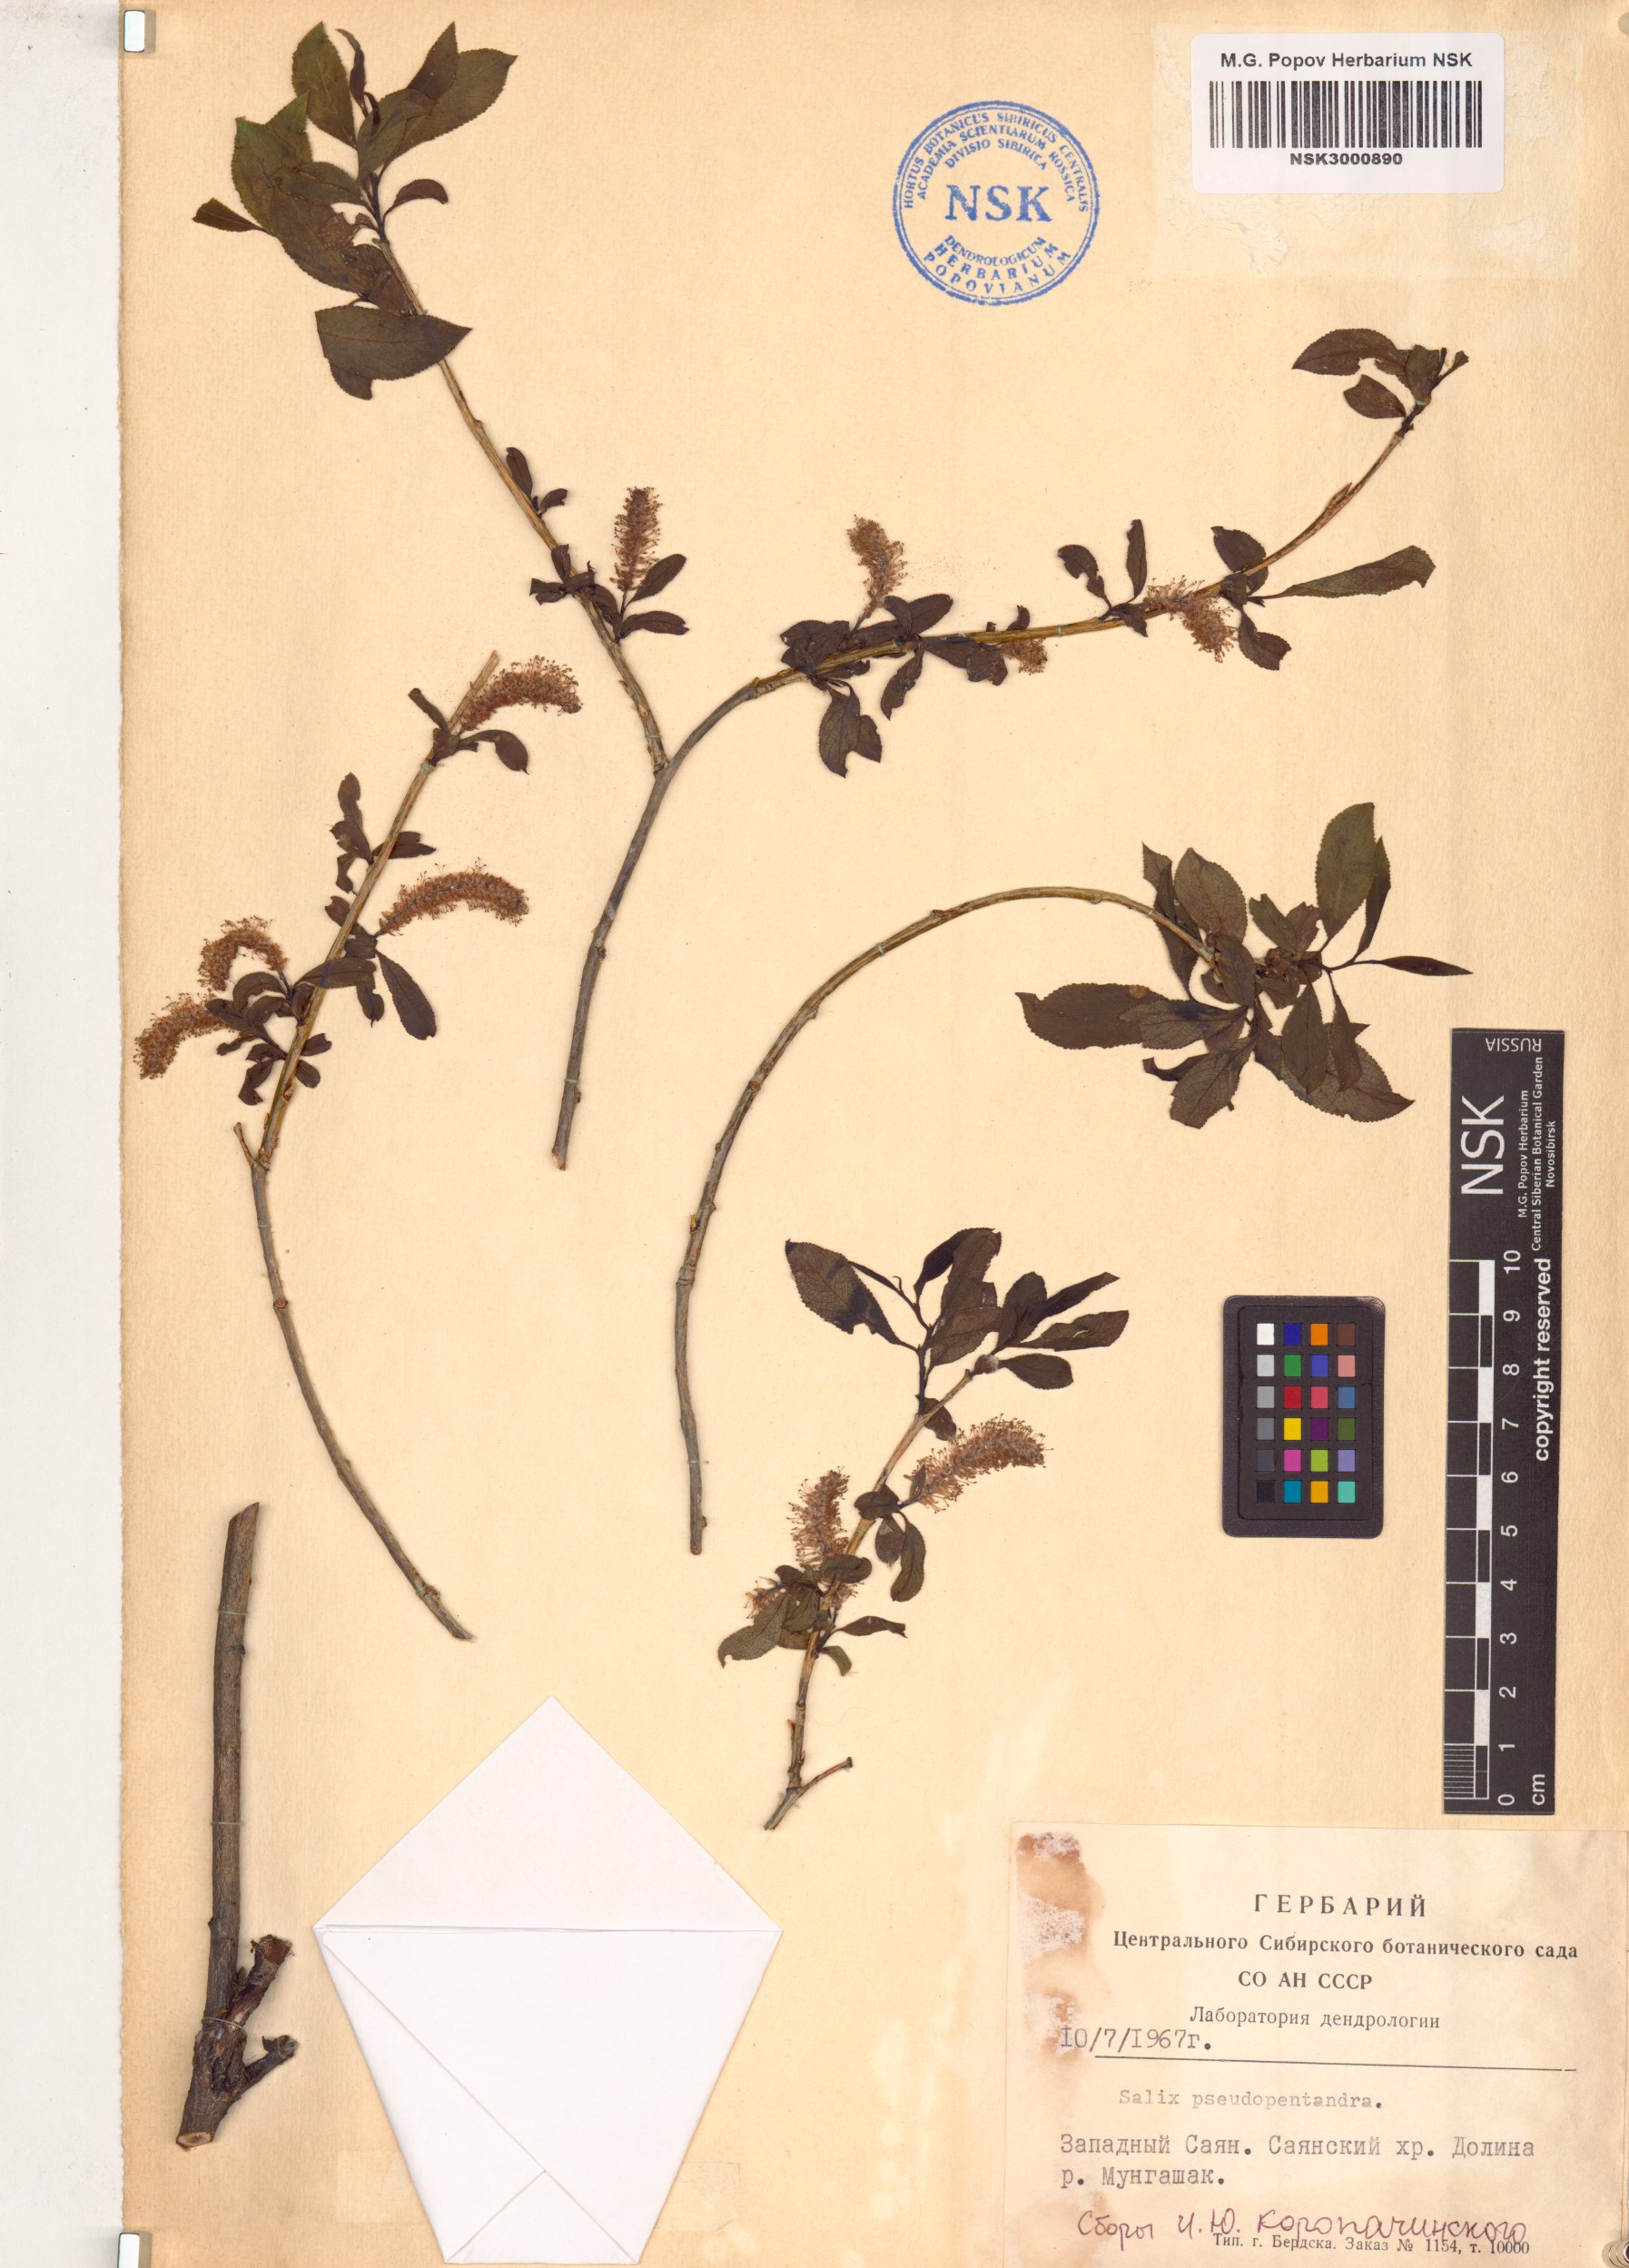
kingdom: Plantae
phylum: Tracheophyta
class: Magnoliopsida
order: Malpighiales
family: Salicaceae
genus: Salix
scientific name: Salix pseudopentandra
